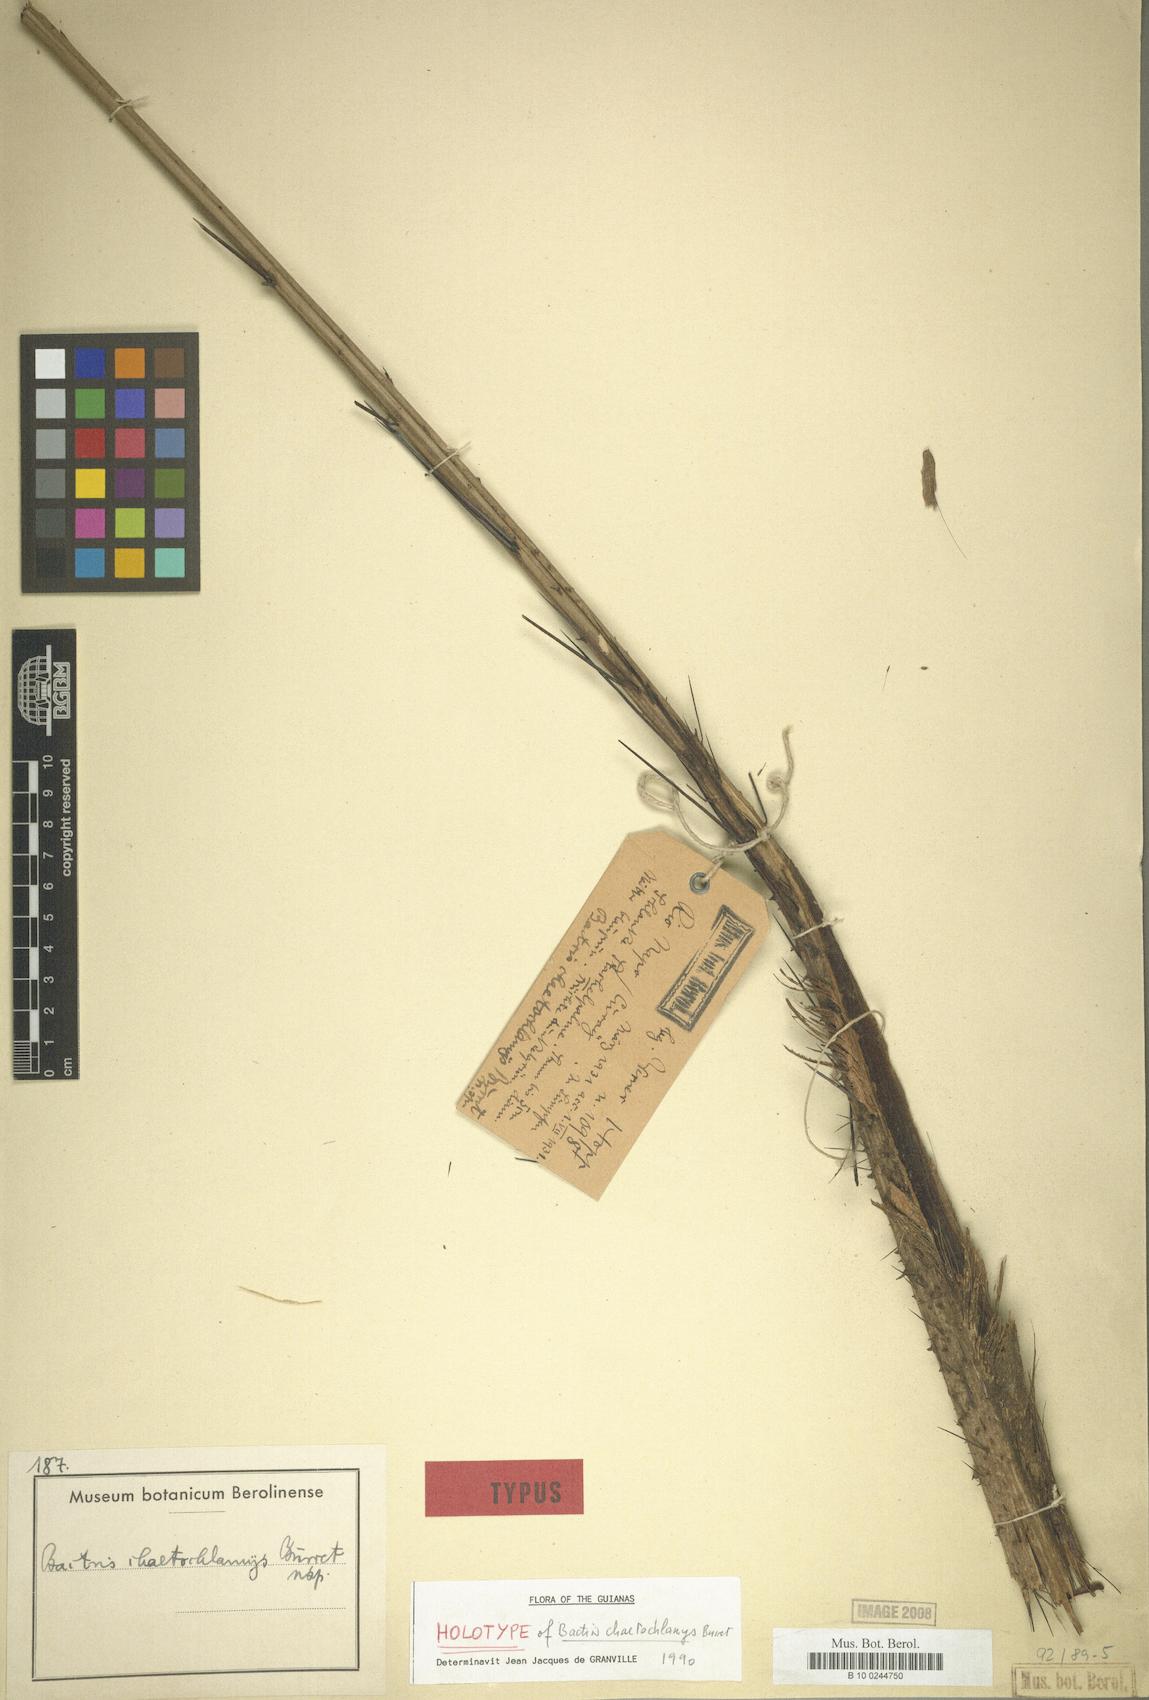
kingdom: Plantae
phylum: Tracheophyta
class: Liliopsida
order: Arecales
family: Arecaceae
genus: Bactris
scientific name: Bactris maraja
